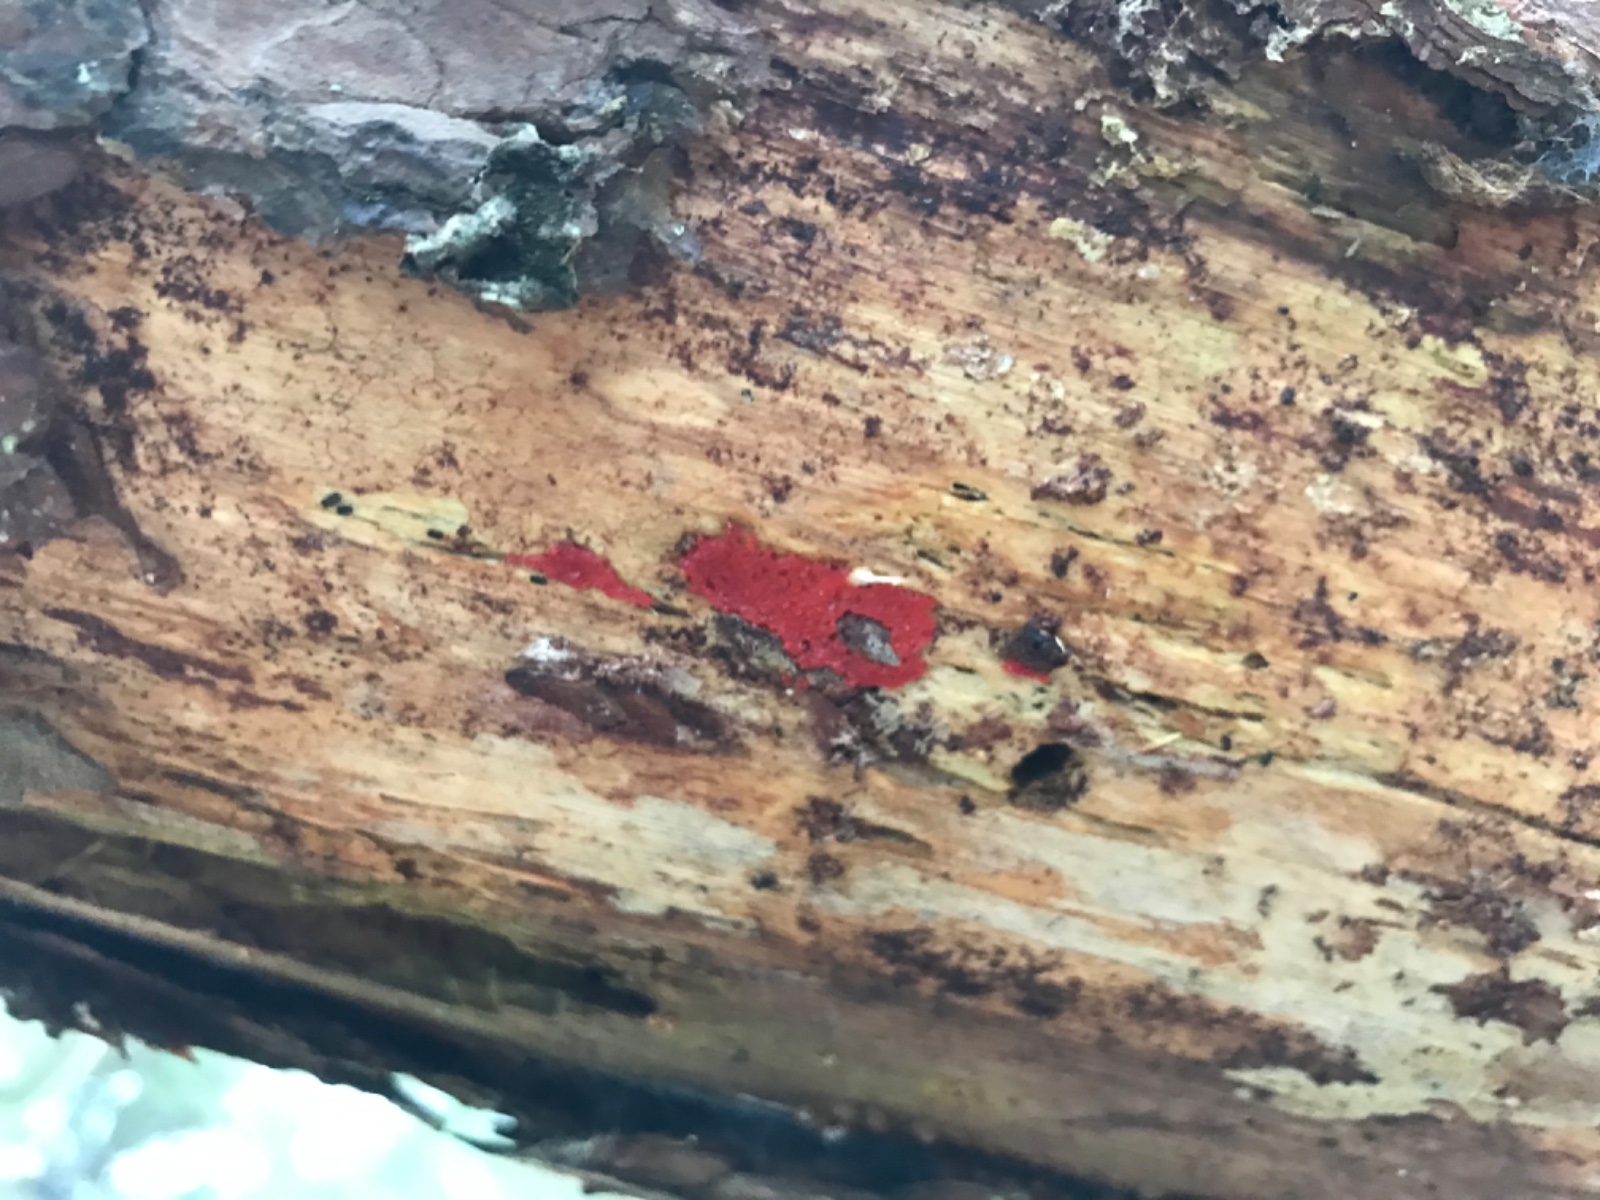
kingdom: Protozoa
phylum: Mycetozoa
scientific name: Mycetozoa
